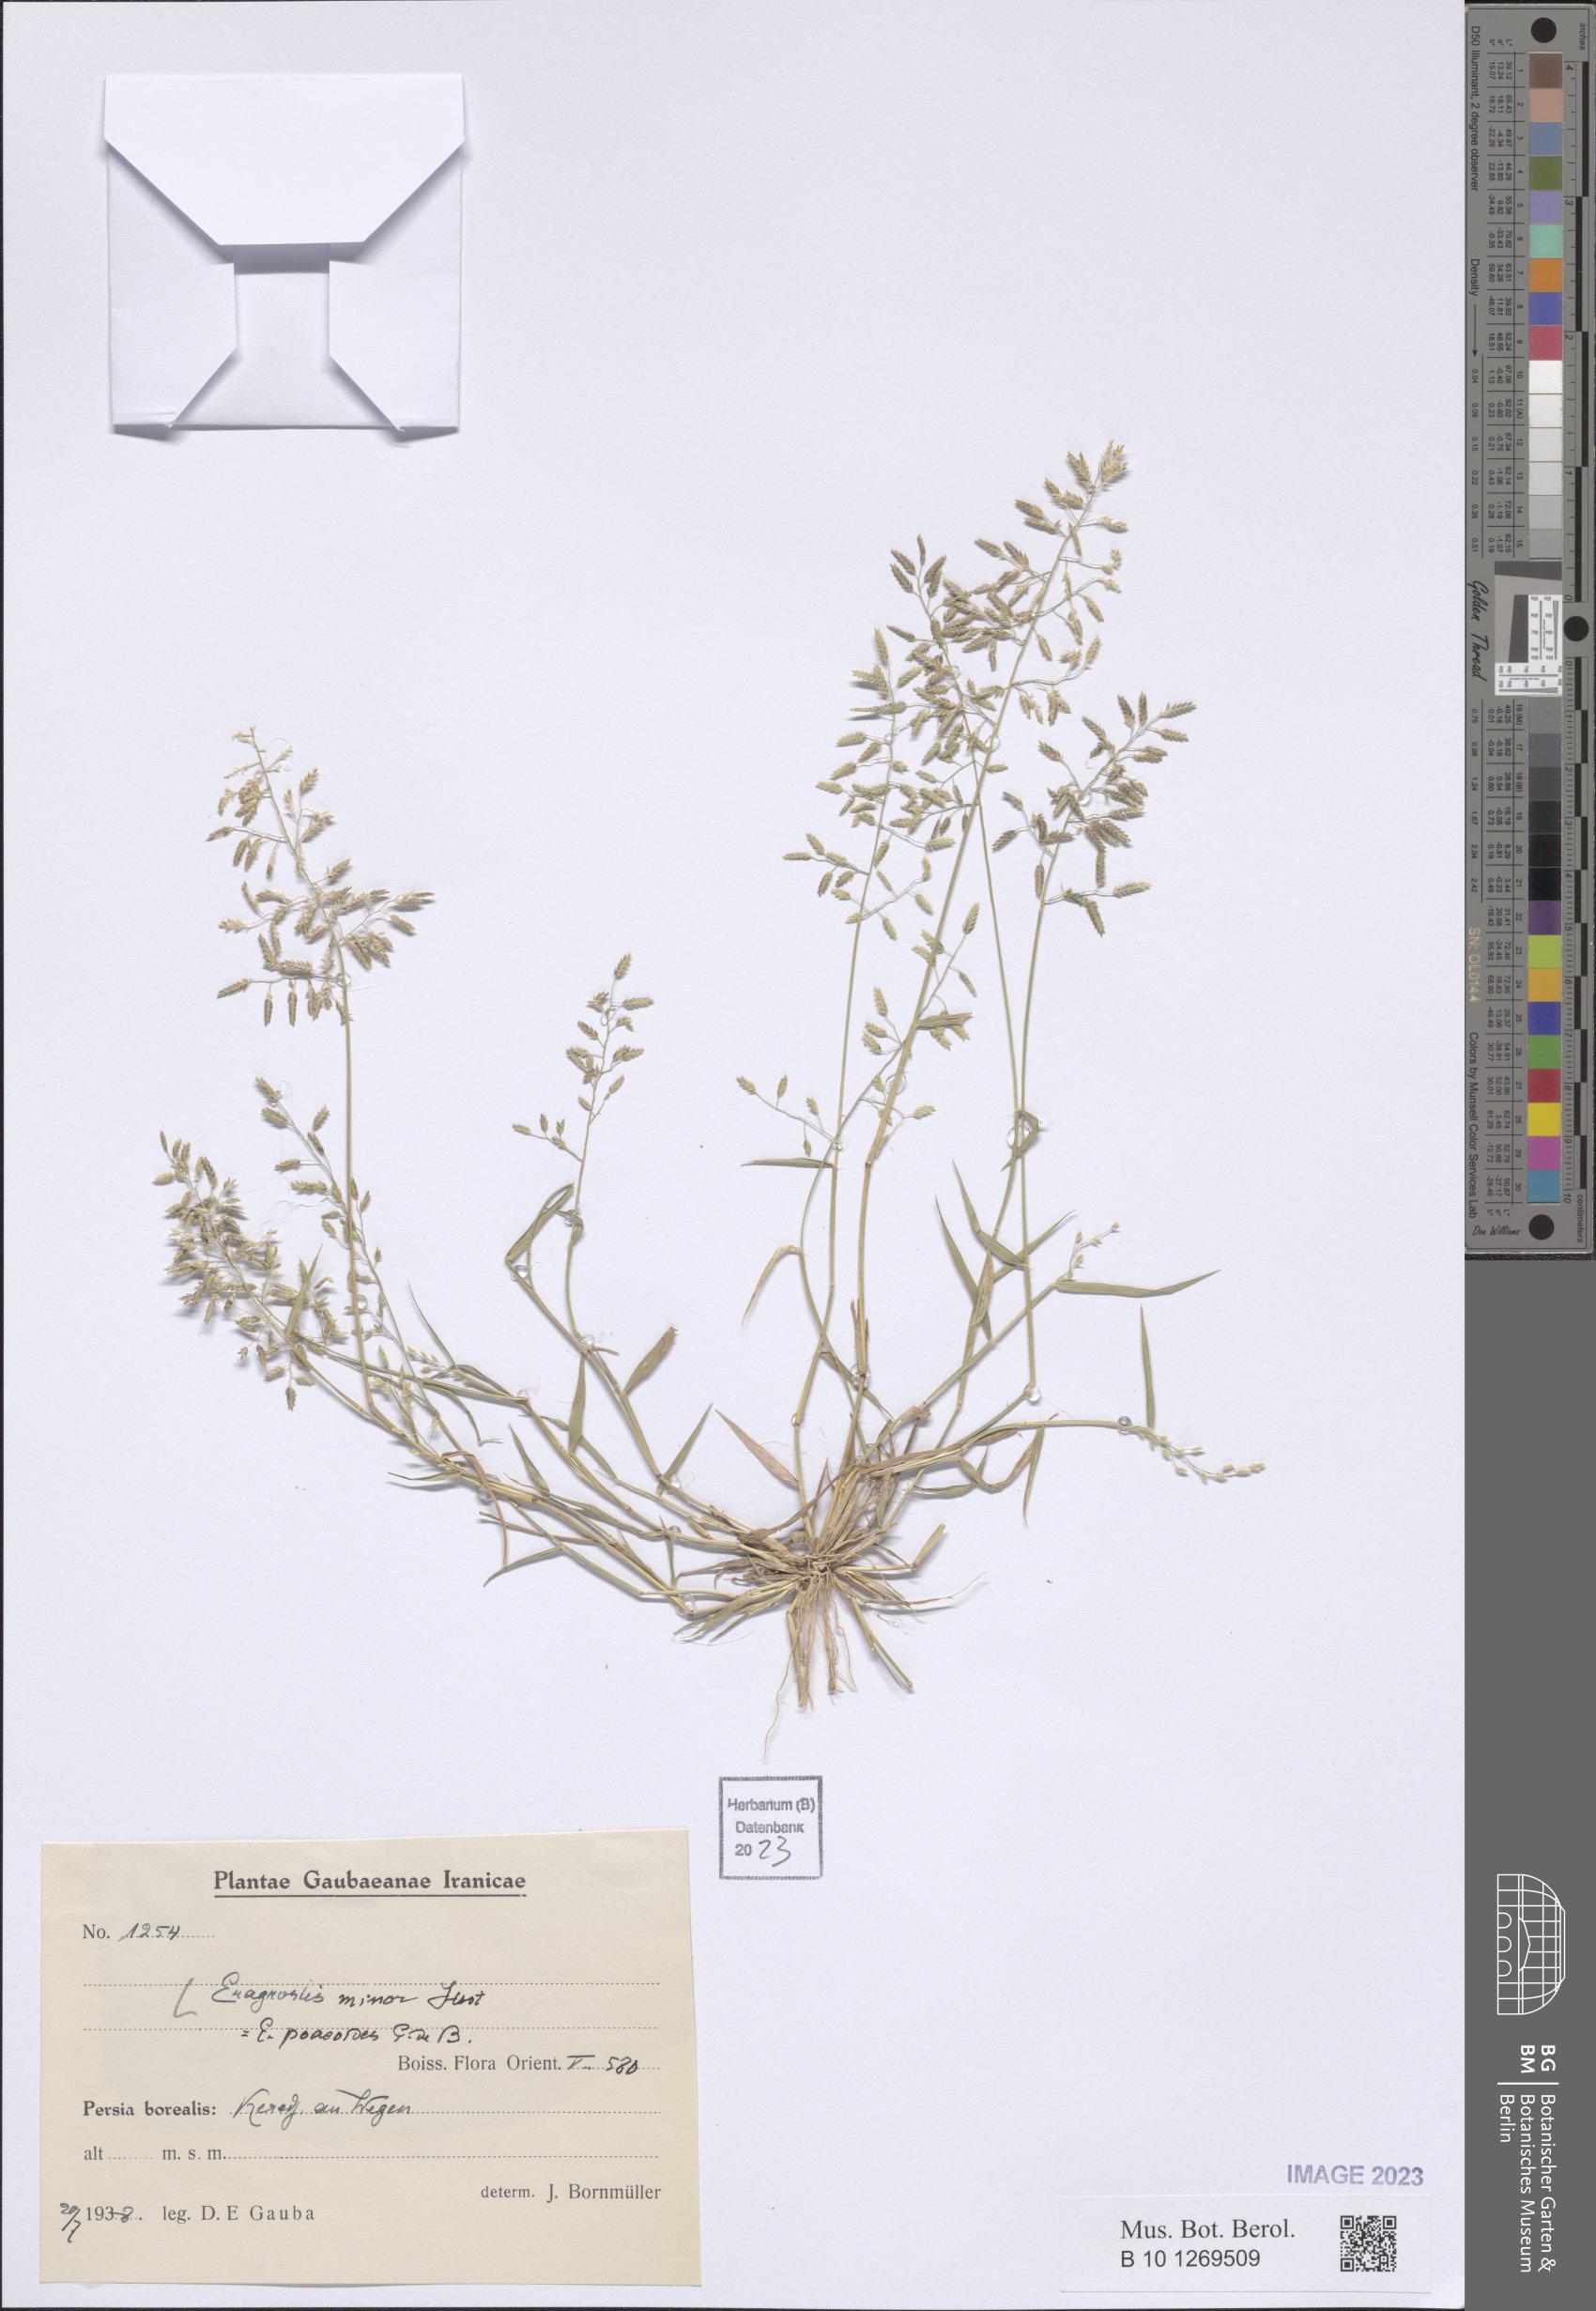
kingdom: Plantae
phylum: Tracheophyta
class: Liliopsida
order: Poales
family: Poaceae
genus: Eragrostis
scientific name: Eragrostis minor
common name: Small love-grass
